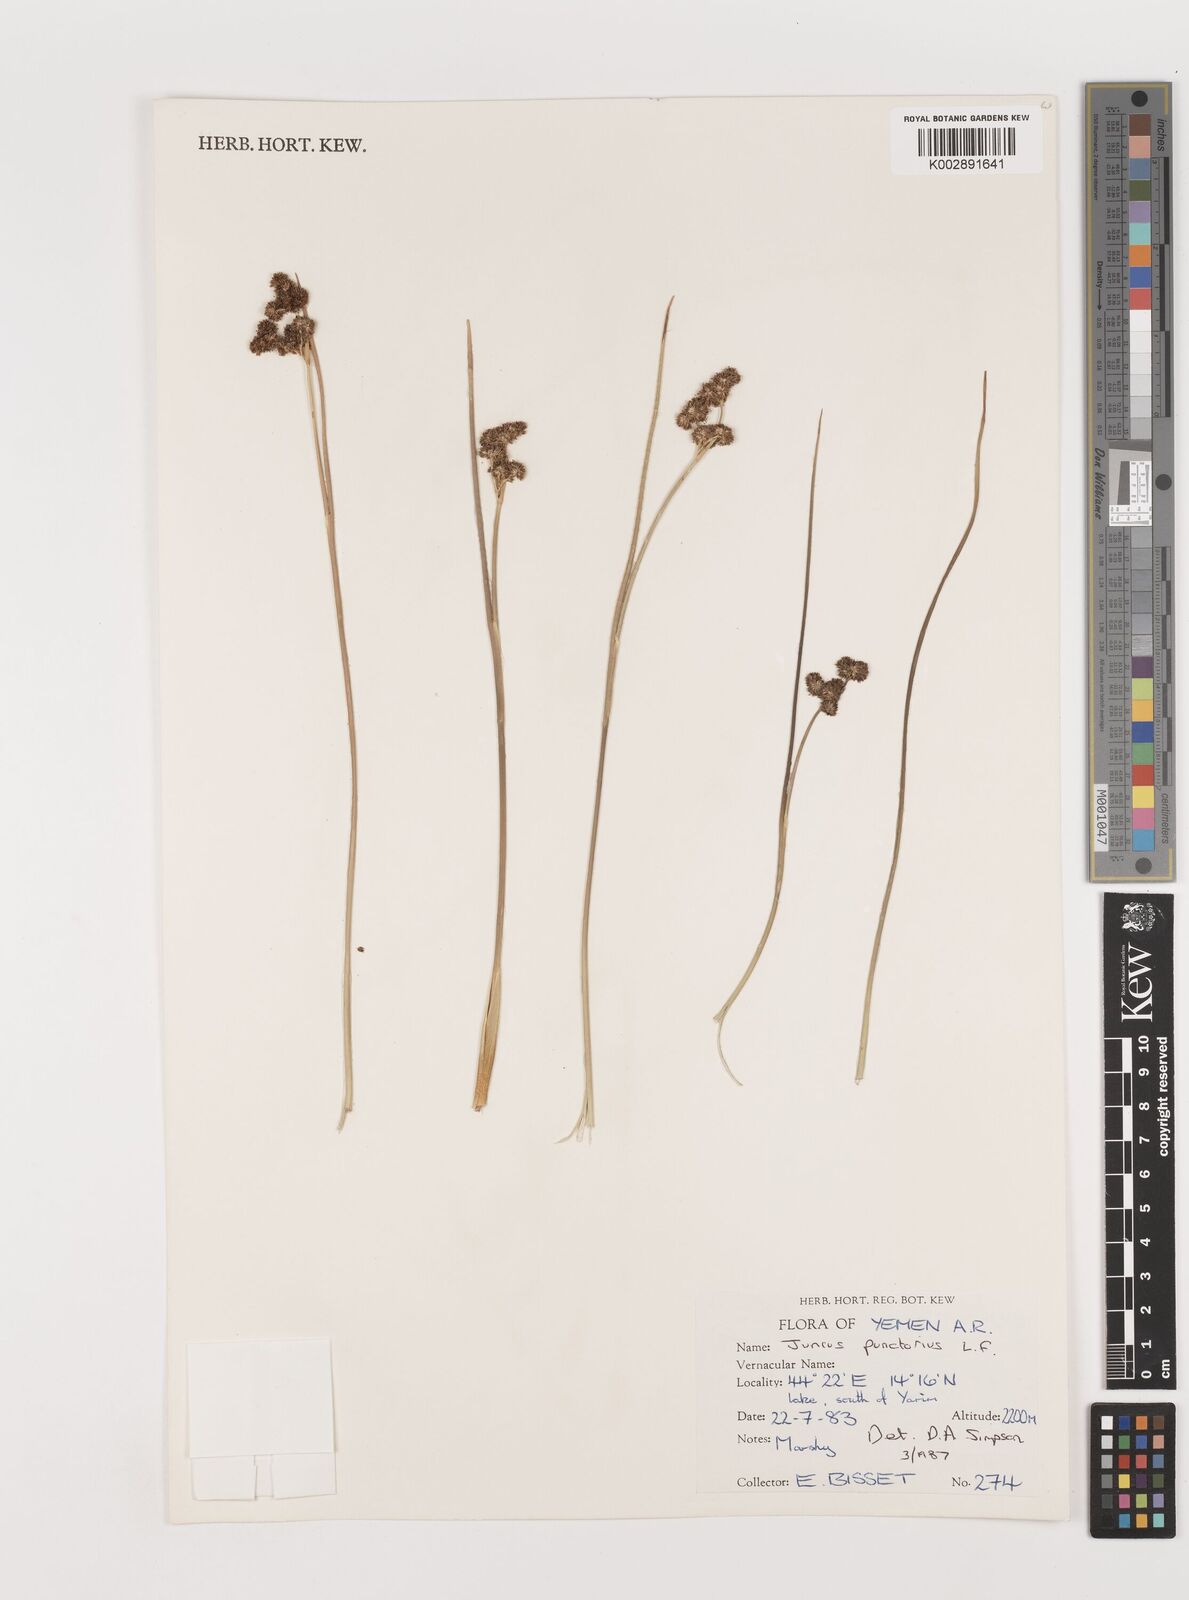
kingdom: Plantae
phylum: Tracheophyta
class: Liliopsida
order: Poales
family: Juncaceae
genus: Juncus
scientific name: Juncus punctorius
